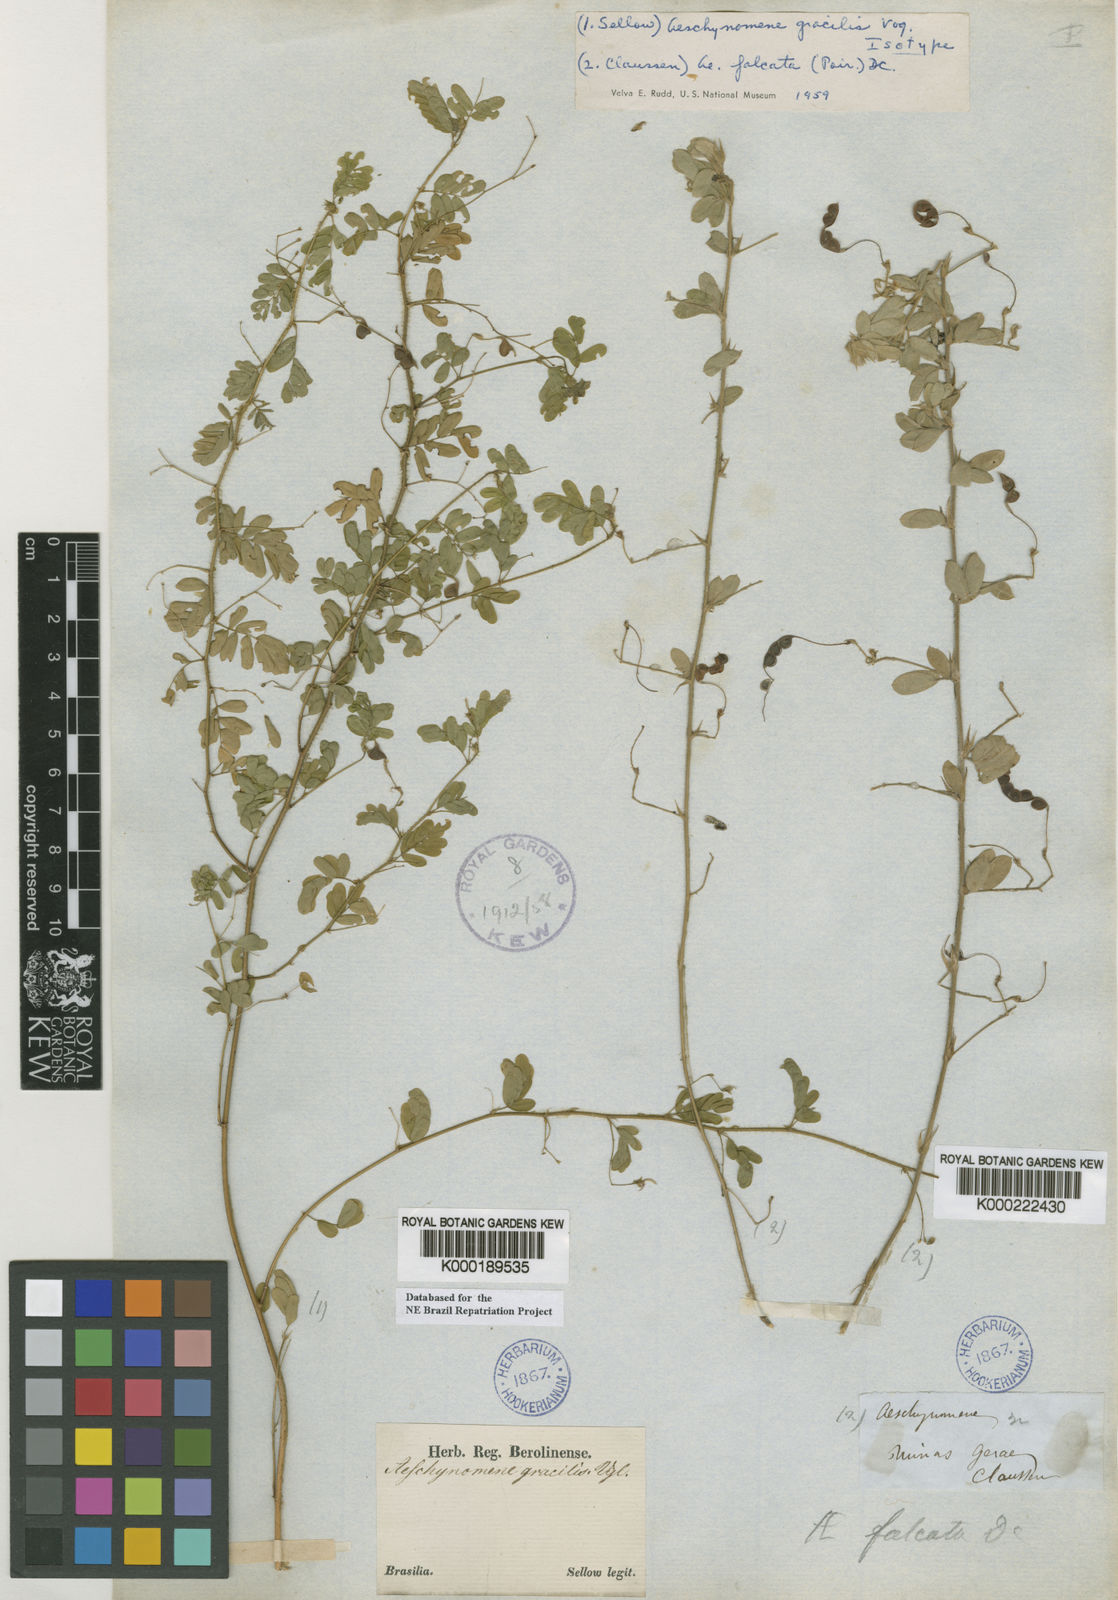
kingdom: Plantae
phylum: Tracheophyta
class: Magnoliopsida
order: Fabales
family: Fabaceae
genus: Ctenodon
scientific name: Ctenodon gracilis
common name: Puerto rico jointvetch
